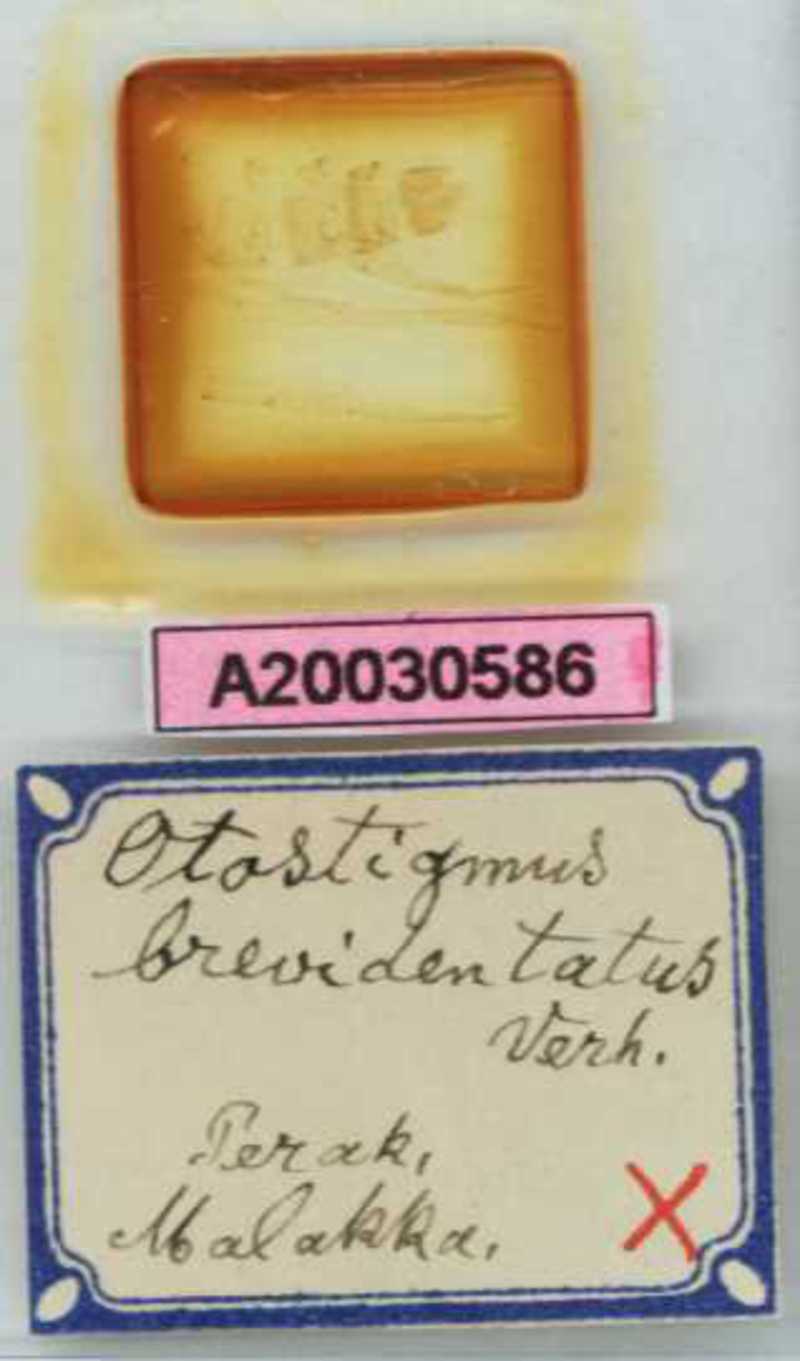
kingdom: Animalia
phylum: Arthropoda
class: Chilopoda
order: Scolopendromorpha
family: Scolopendridae
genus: Otostigmus
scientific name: Otostigmus brevidentatus
